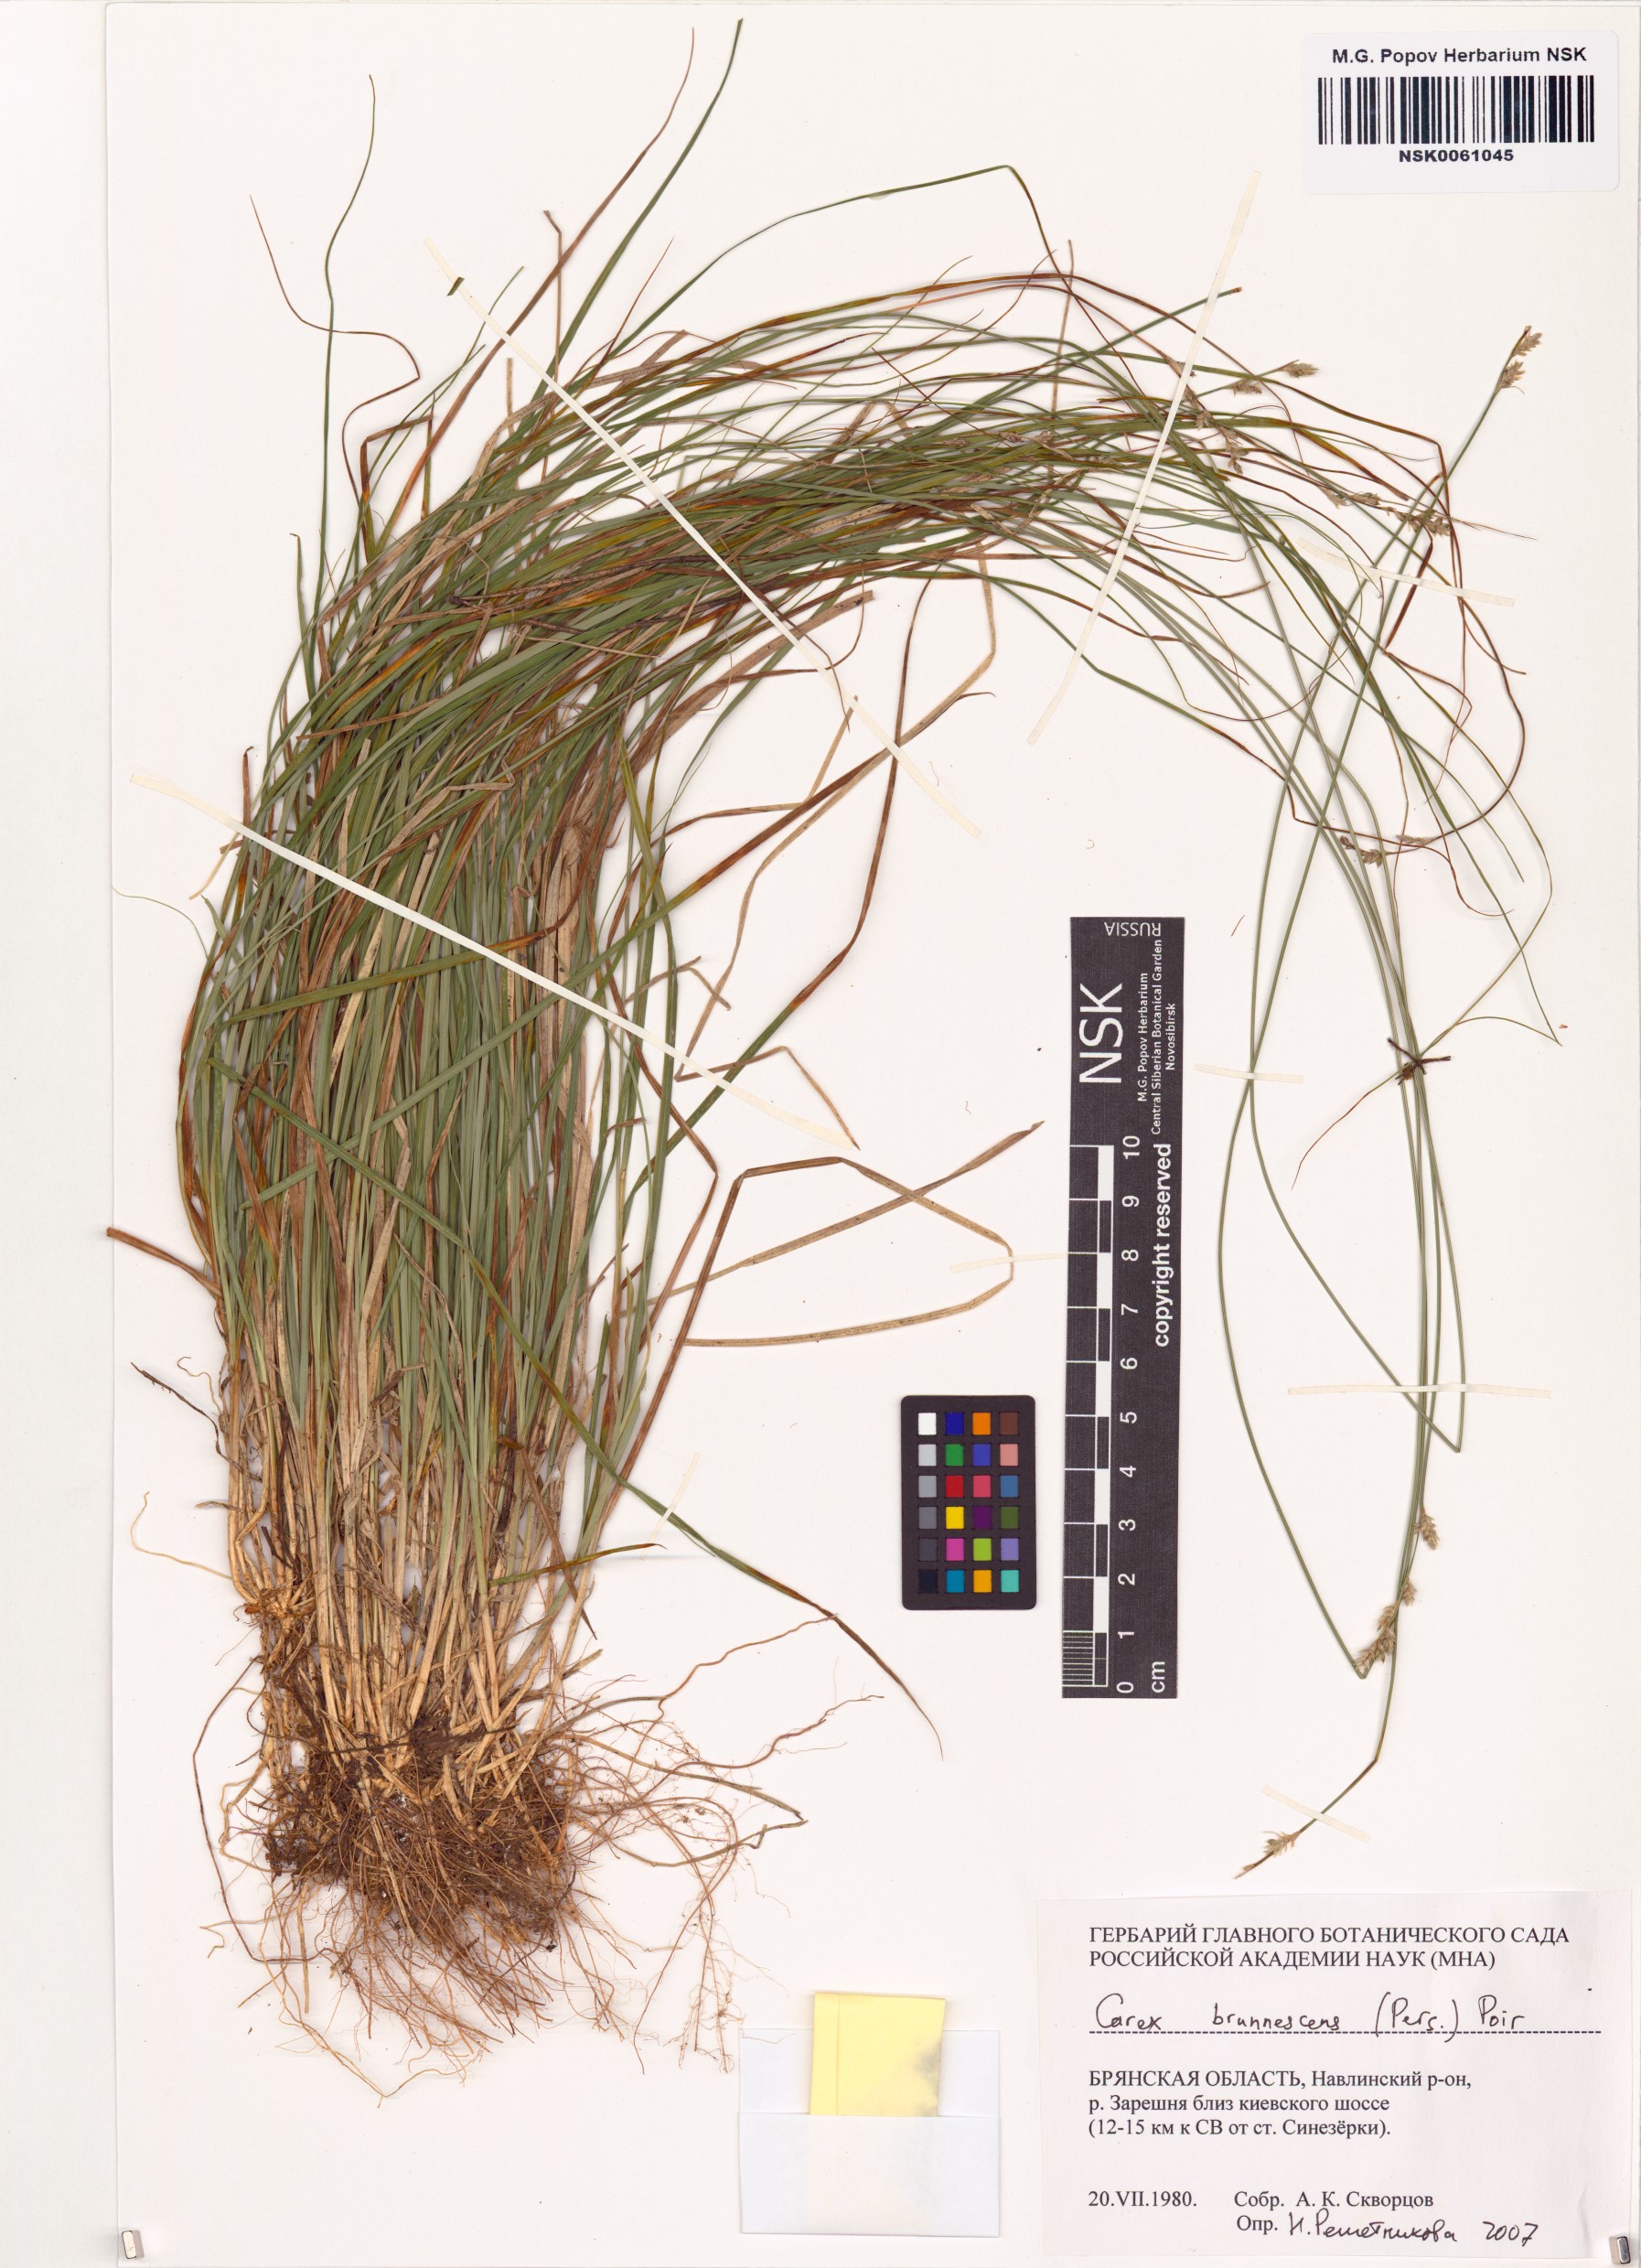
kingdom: Plantae
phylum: Tracheophyta
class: Liliopsida
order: Poales
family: Cyperaceae
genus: Carex
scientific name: Carex brunnescens
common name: Brown sedge
